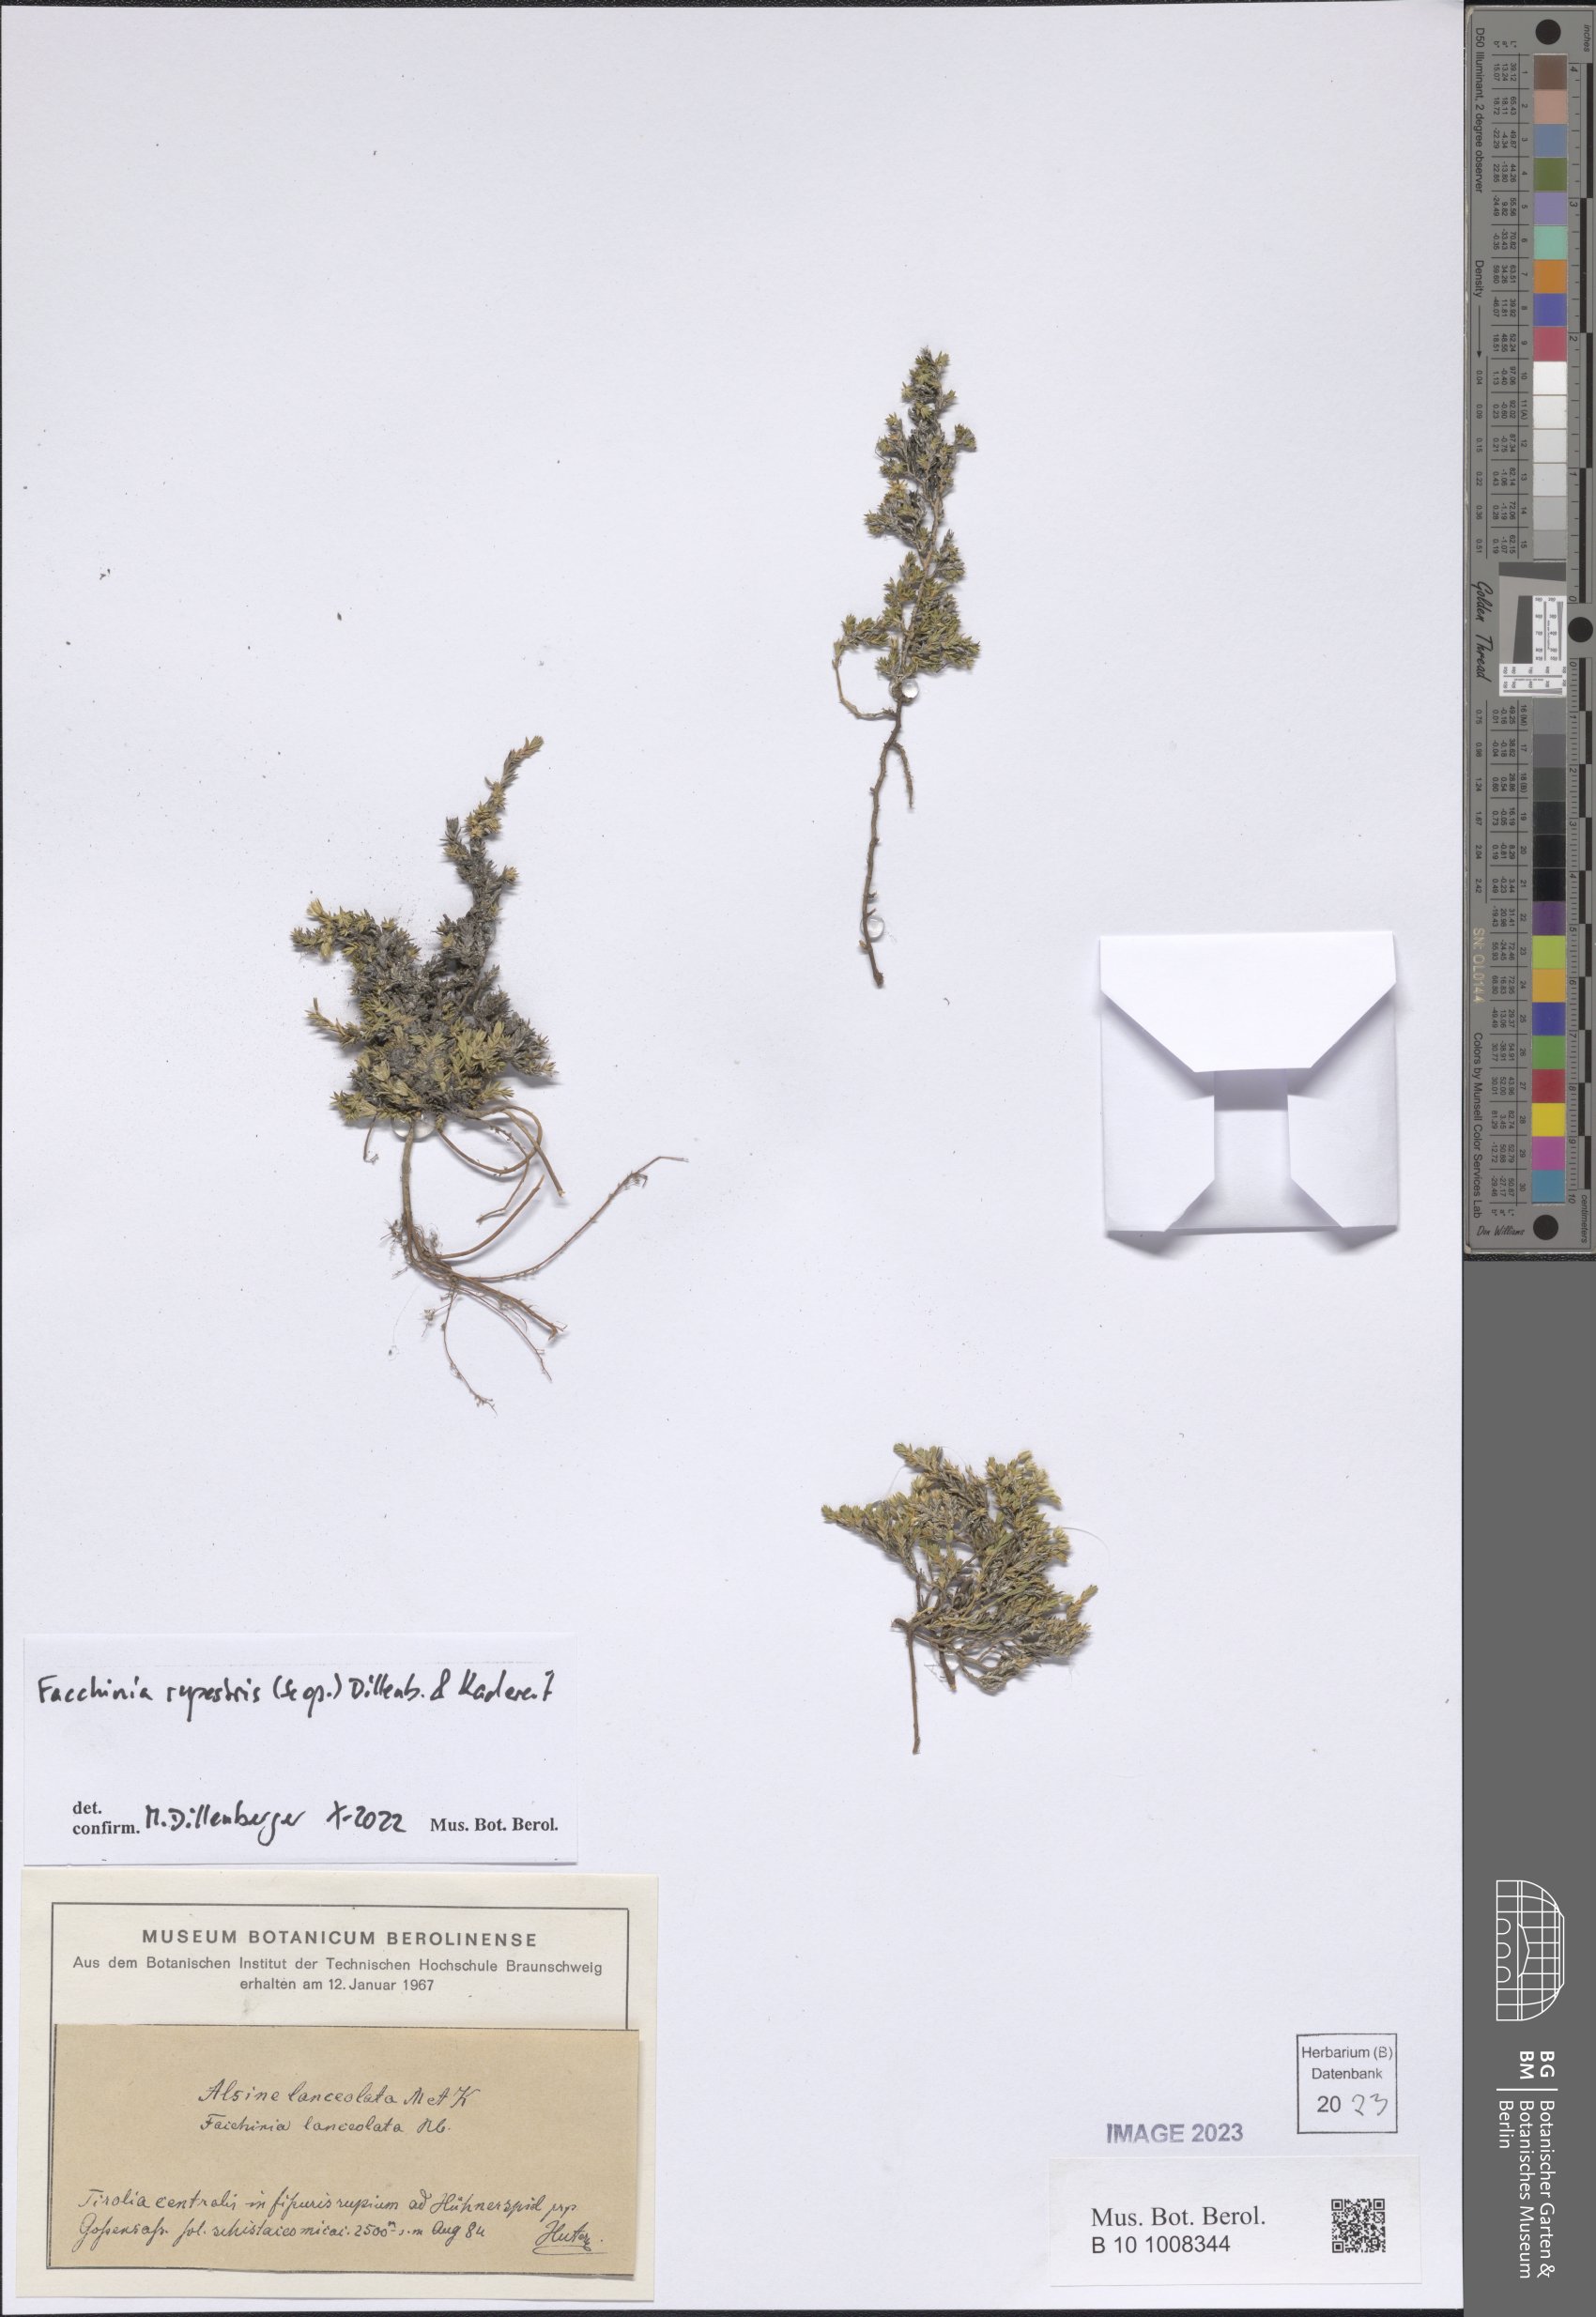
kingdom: Plantae
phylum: Tracheophyta
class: Magnoliopsida
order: Caryophyllales
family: Caryophyllaceae
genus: Facchinia
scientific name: Facchinia rupestris
